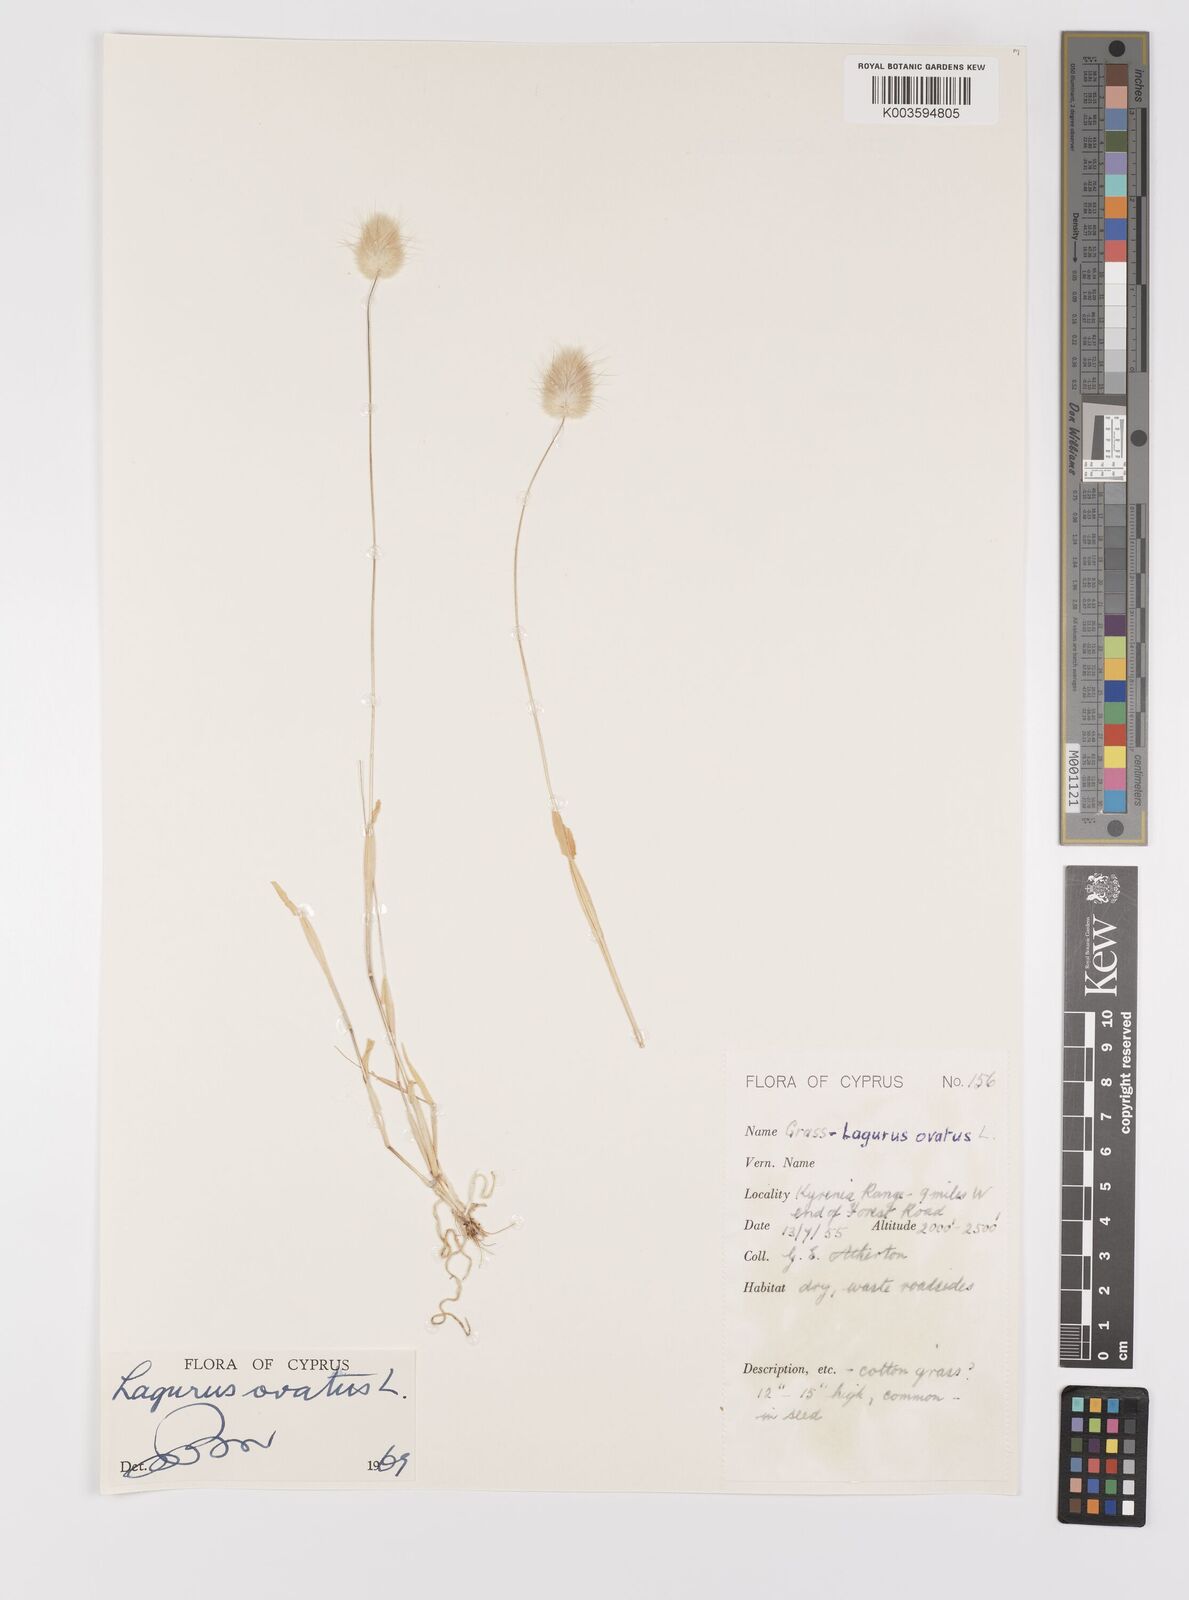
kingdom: Plantae
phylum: Tracheophyta
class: Liliopsida
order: Poales
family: Poaceae
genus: Lagurus
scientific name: Lagurus ovatus
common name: Hare's-tail
